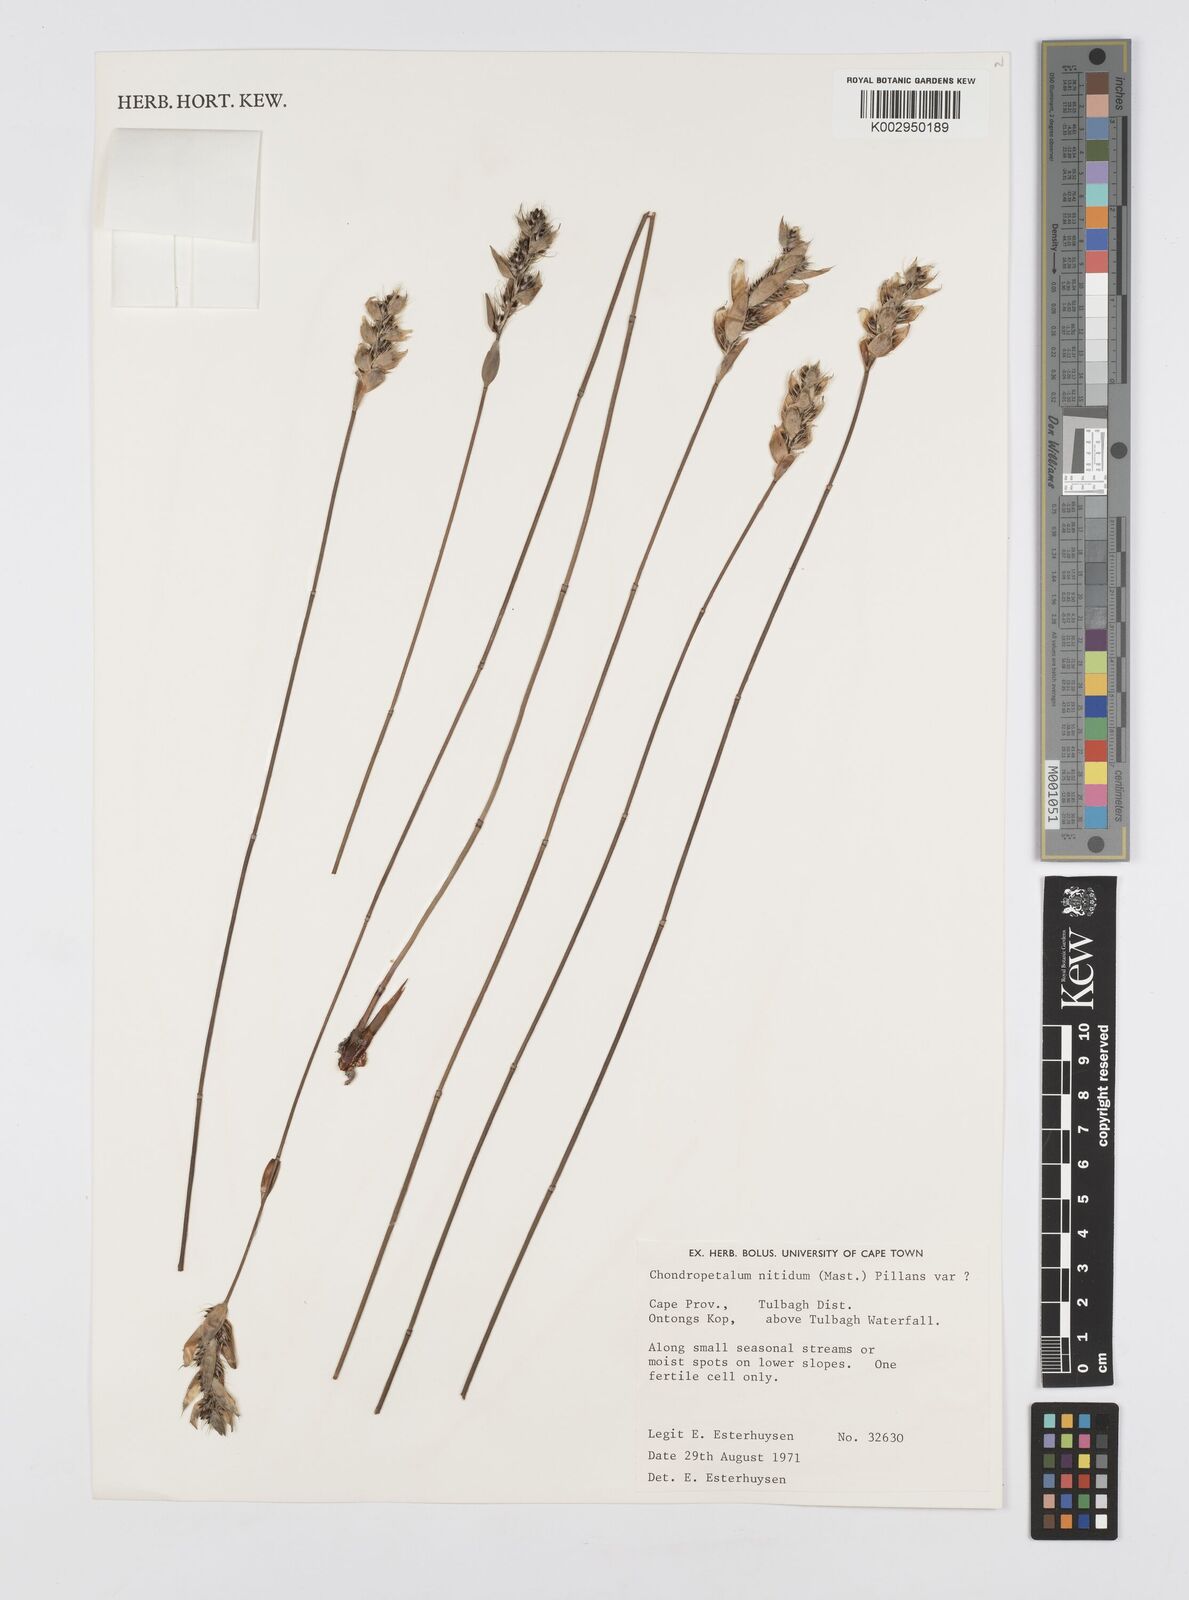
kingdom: Plantae
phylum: Tracheophyta
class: Liliopsida
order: Poales
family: Restionaceae
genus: Askidiosperma
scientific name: Askidiosperma nitidum
